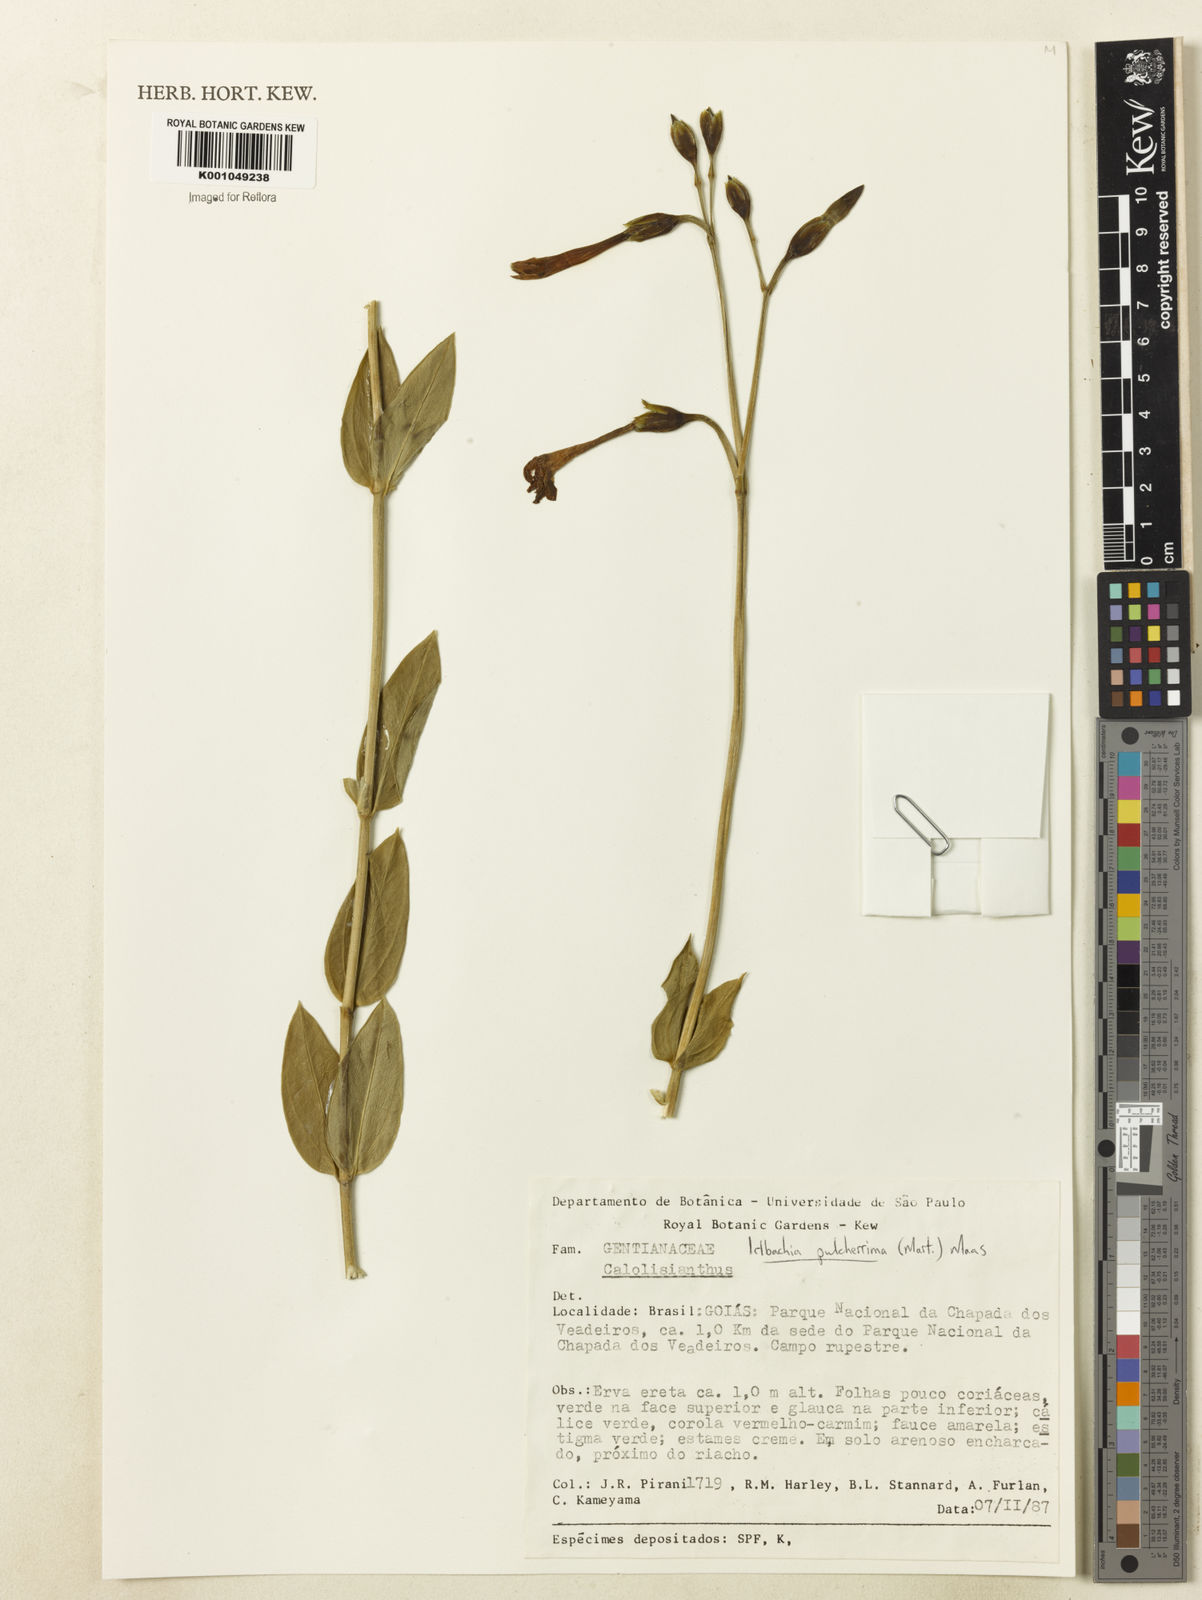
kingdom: Plantae
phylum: Tracheophyta
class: Magnoliopsida
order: Gentianales
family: Gentianaceae
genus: Calolisianthus
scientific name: Calolisianthus pulcherrimus
